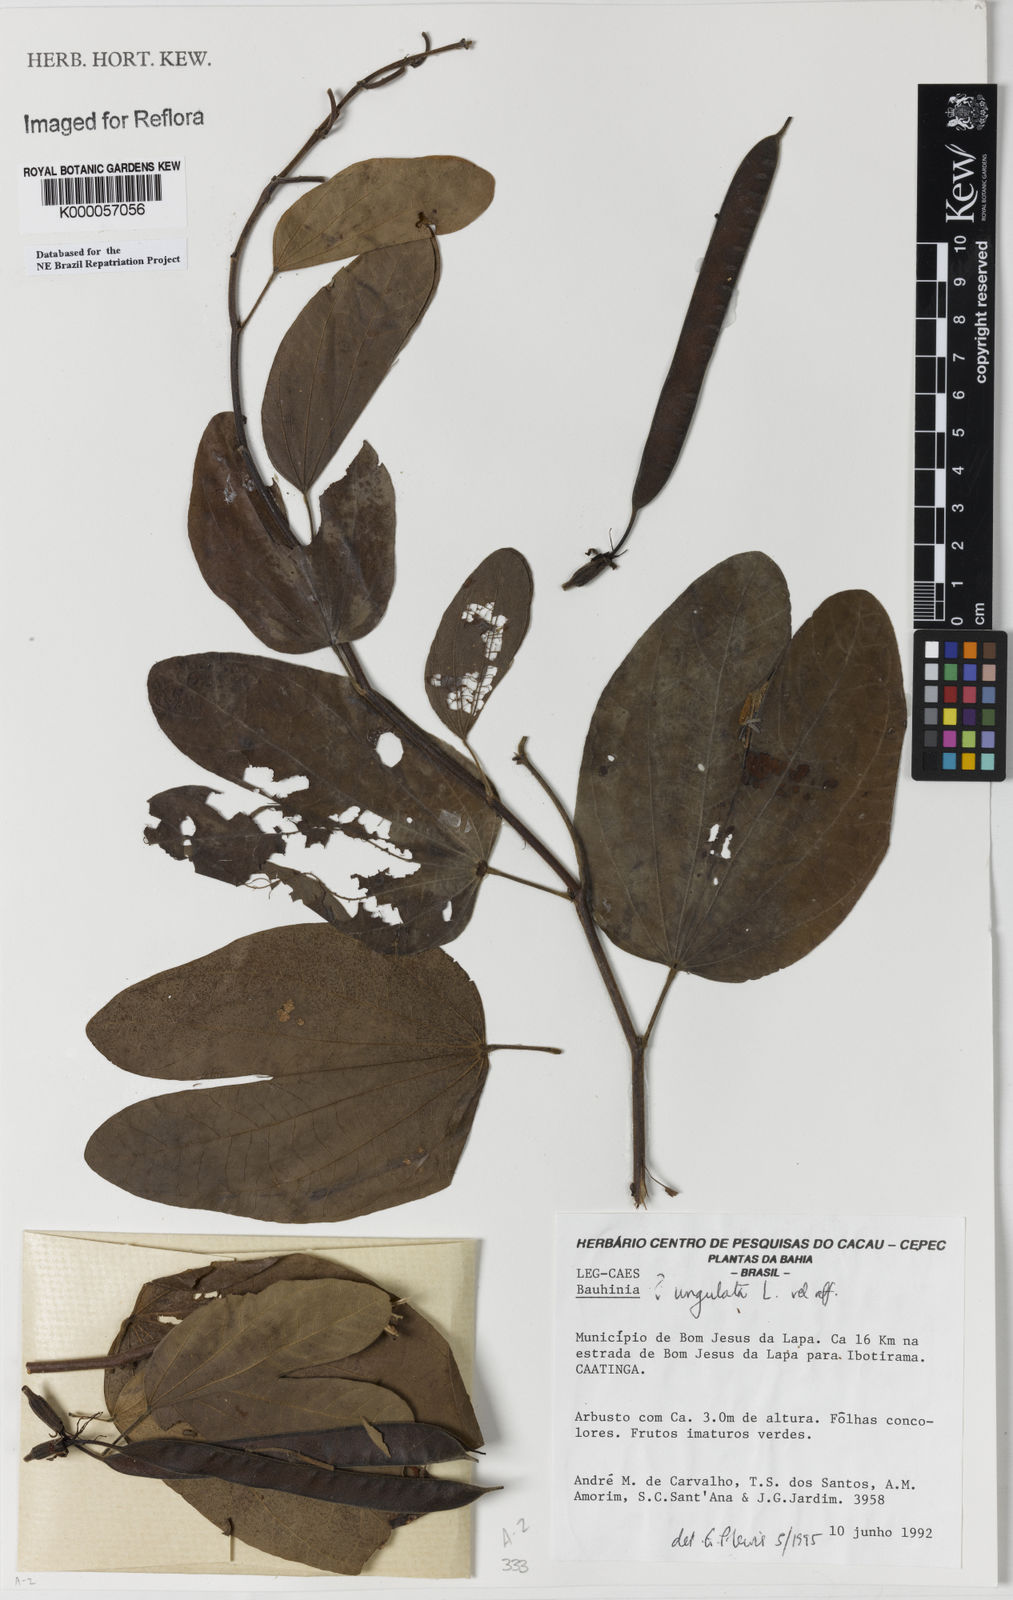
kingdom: Plantae
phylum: Tracheophyta
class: Magnoliopsida
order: Fabales
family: Fabaceae
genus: Bauhinia
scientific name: Bauhinia ungulata
